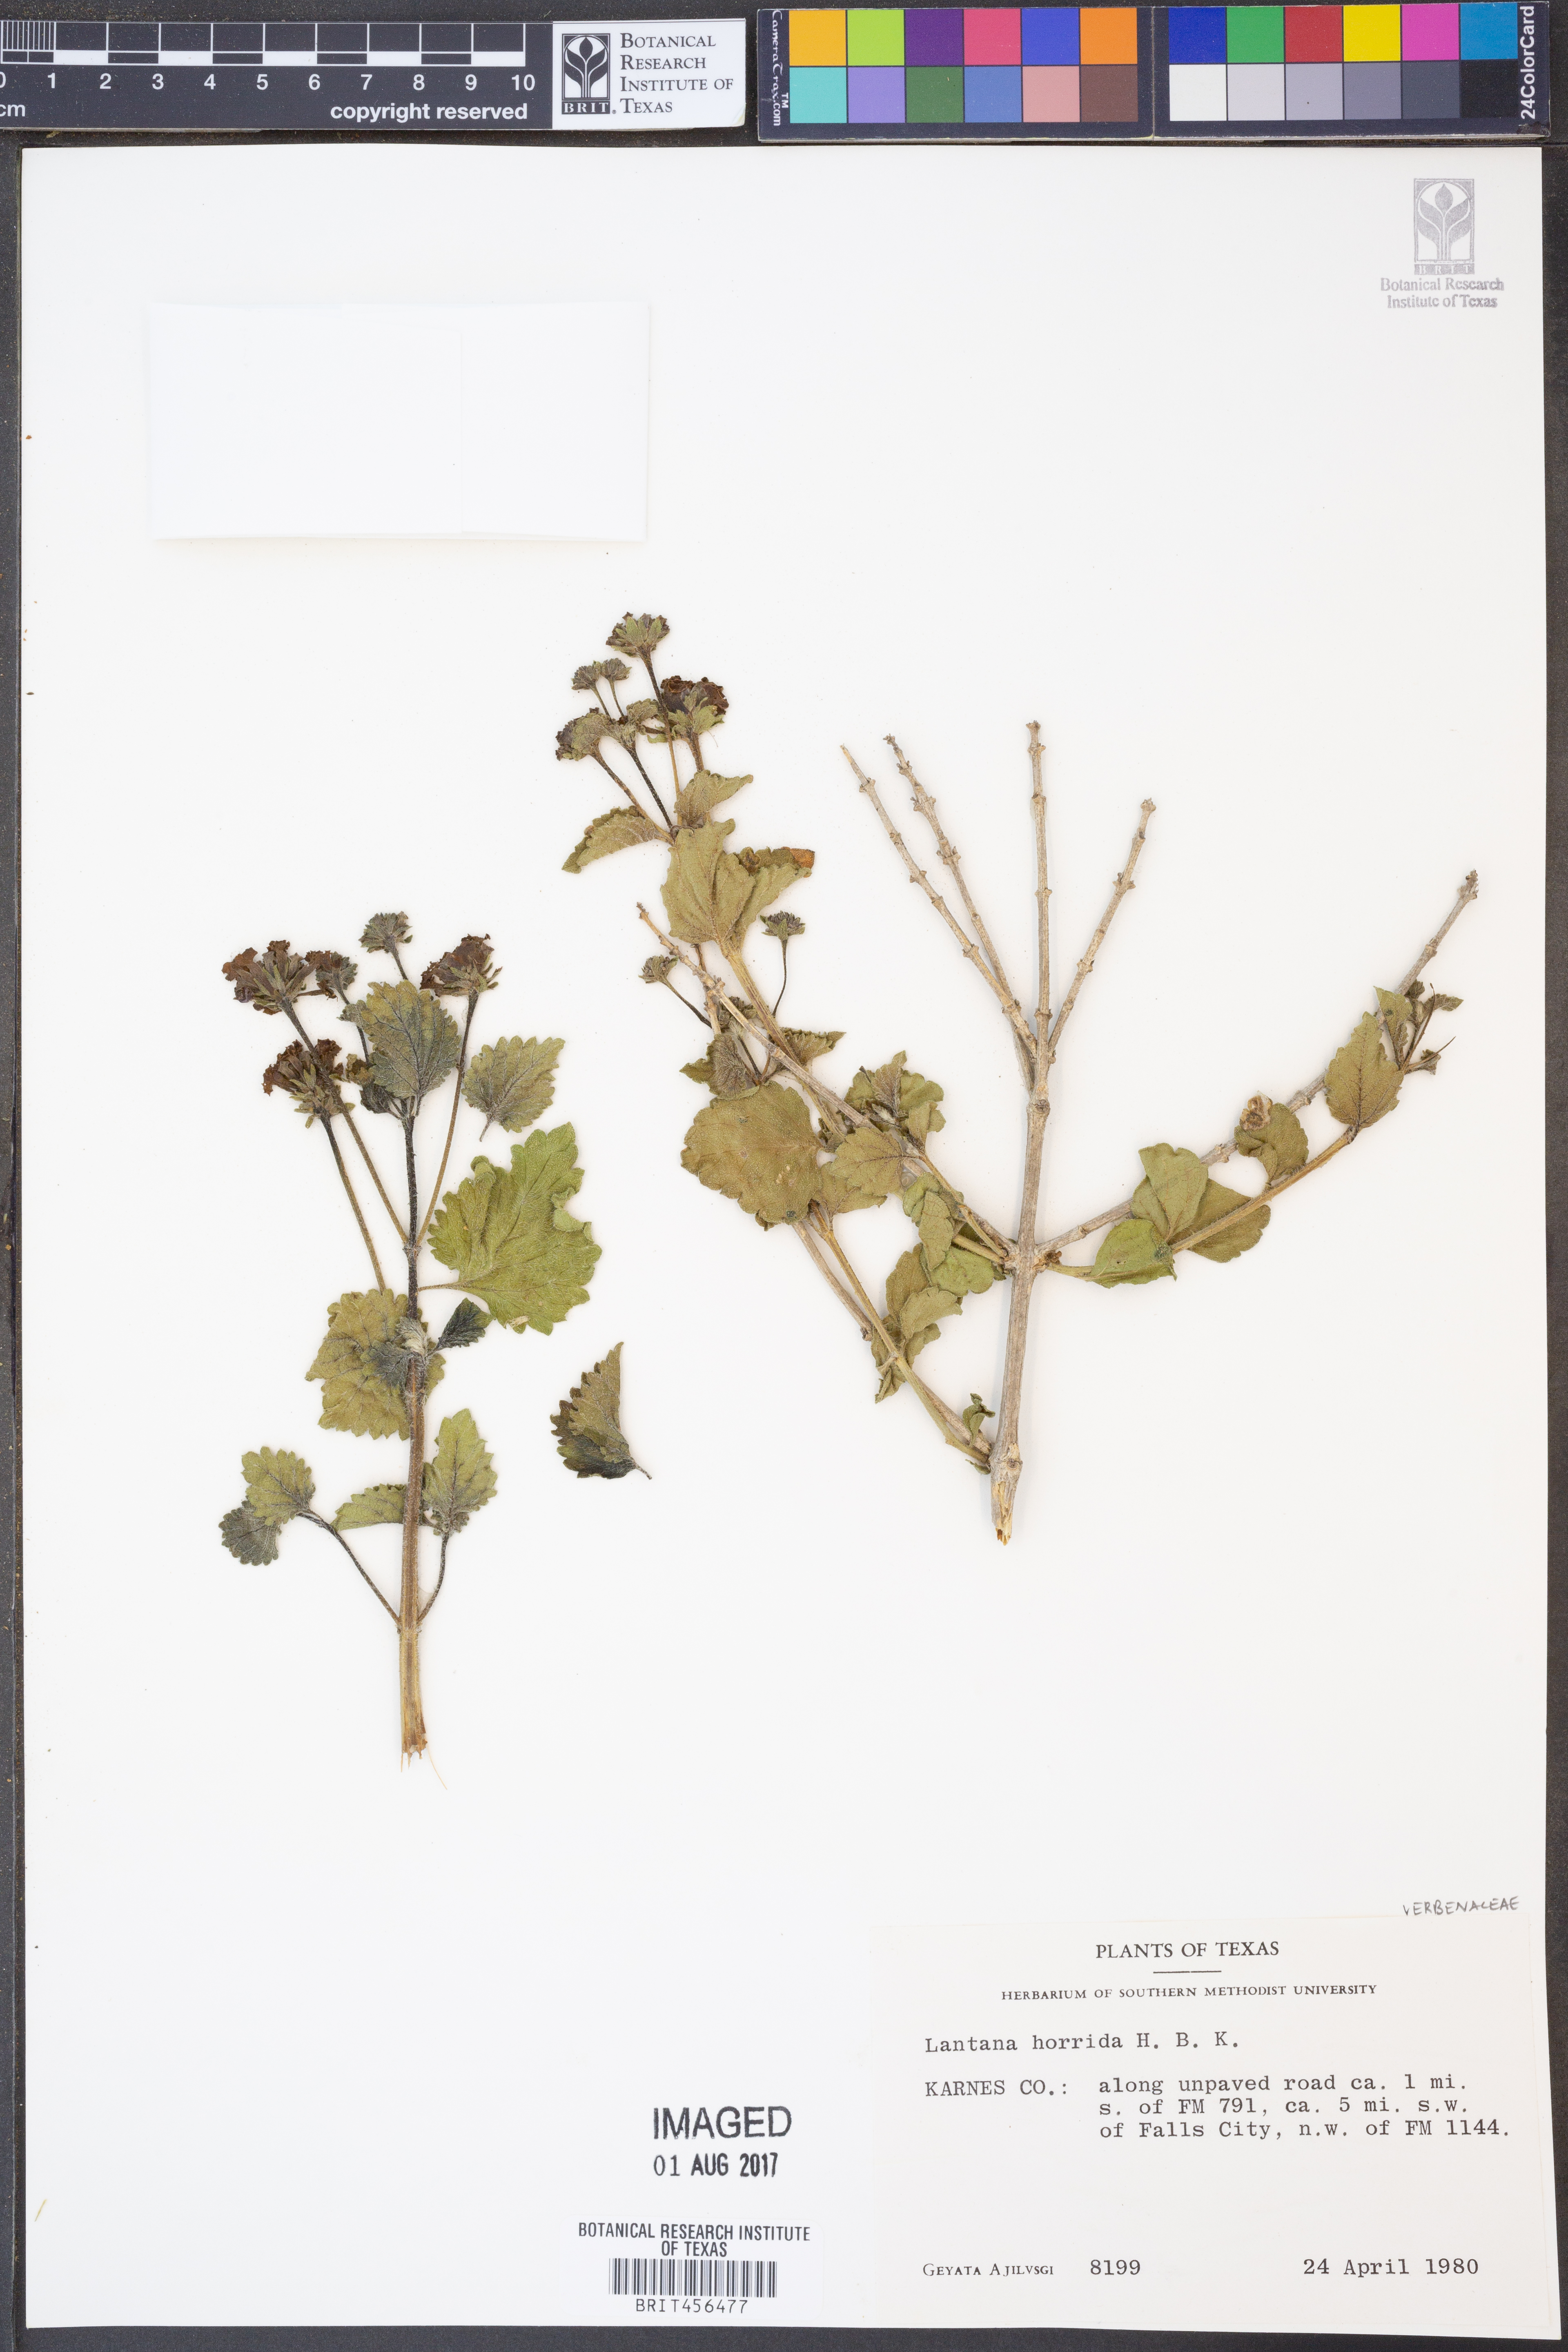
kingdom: Plantae
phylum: Tracheophyta
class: Magnoliopsida
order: Lamiales
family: Verbenaceae
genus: Lantana
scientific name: Lantana horrida
